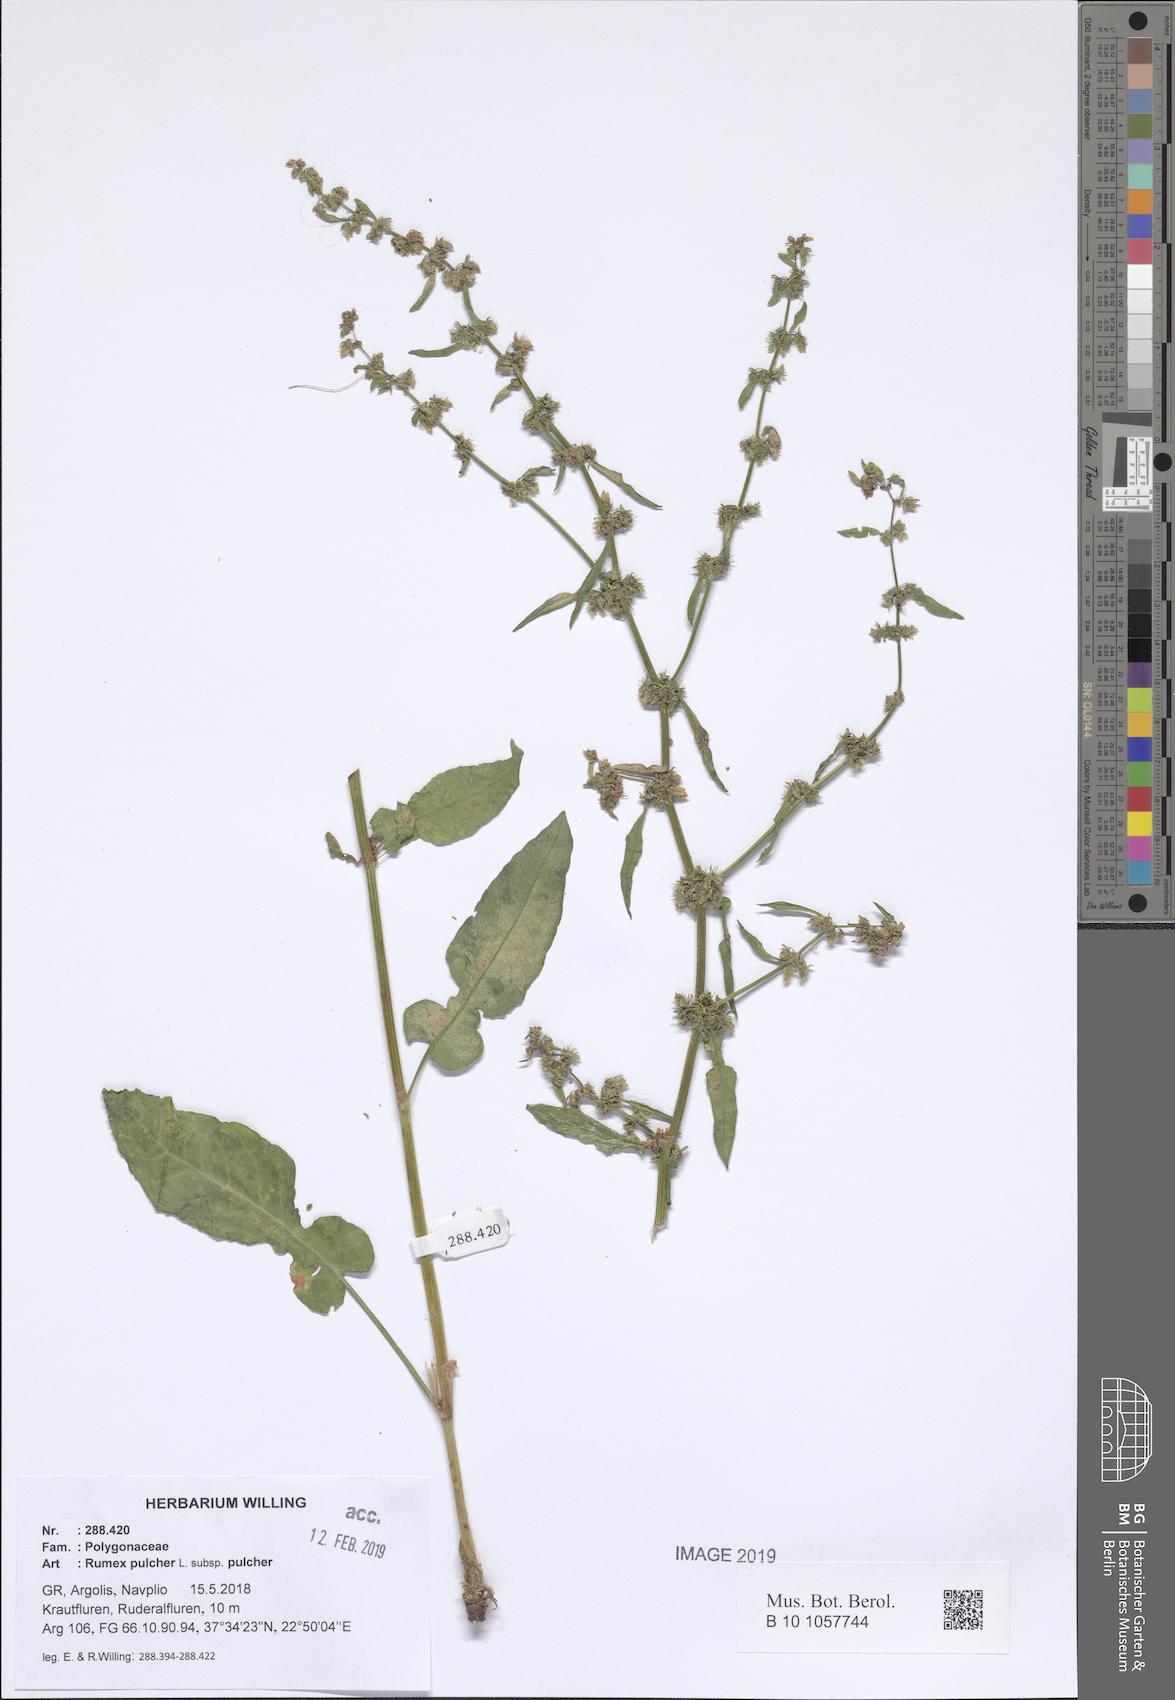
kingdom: Plantae
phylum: Tracheophyta
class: Magnoliopsida
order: Caryophyllales
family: Polygonaceae
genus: Rumex
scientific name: Rumex pulcher
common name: Fiddle dock
